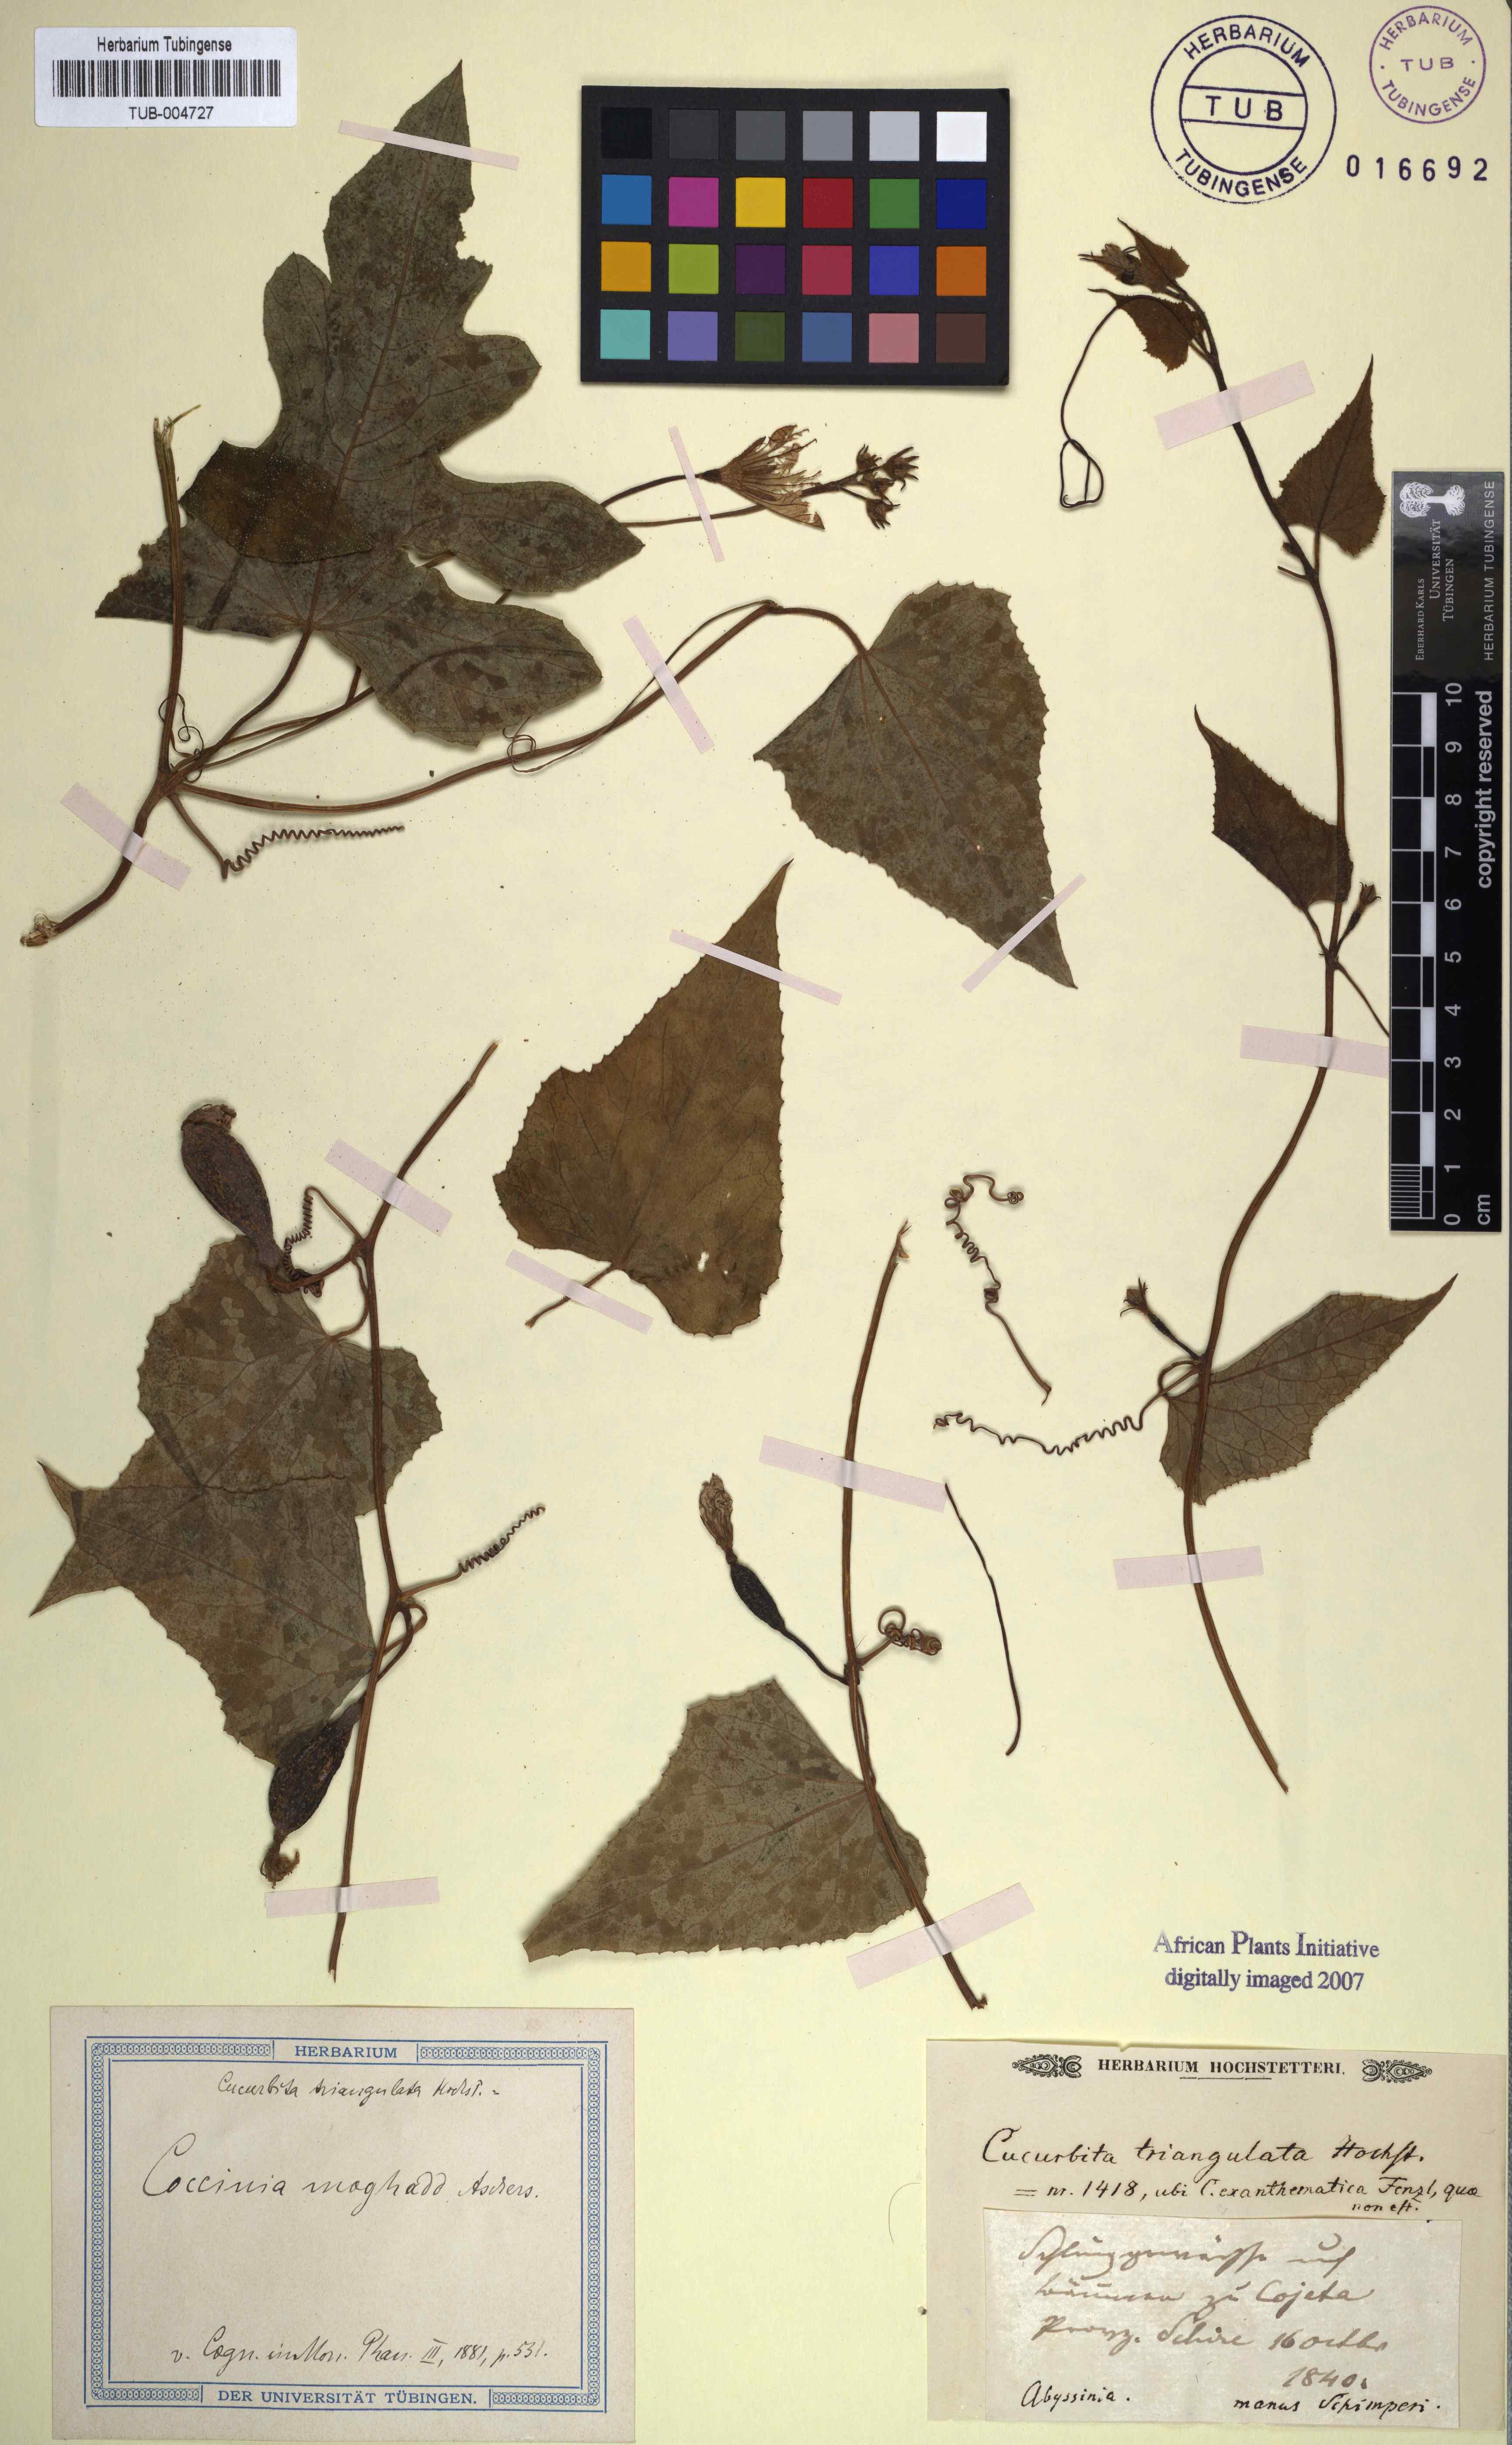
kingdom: Plantae
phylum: Tracheophyta
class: Magnoliopsida
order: Cucurbitales
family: Cucurbitaceae
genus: Coccinia
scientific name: Coccinia grandis
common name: Ivy gourd
